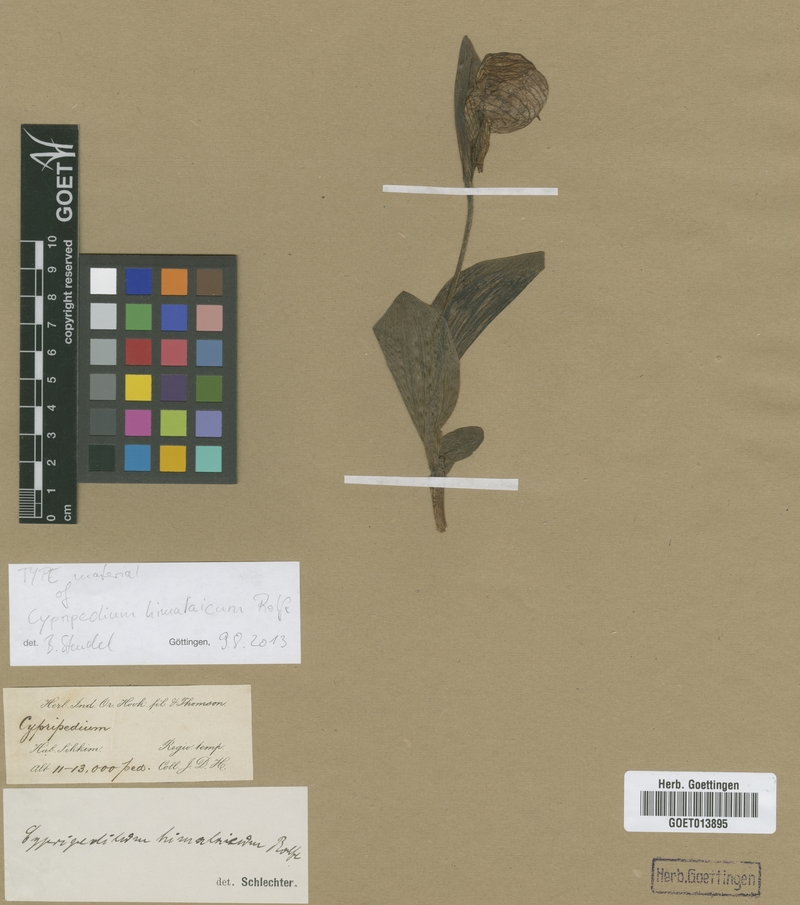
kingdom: Plantae
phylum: Tracheophyta
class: Liliopsida
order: Asparagales
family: Orchidaceae
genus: Cypripedium
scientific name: Cypripedium himalaicum
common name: Himalayan cypripedium
